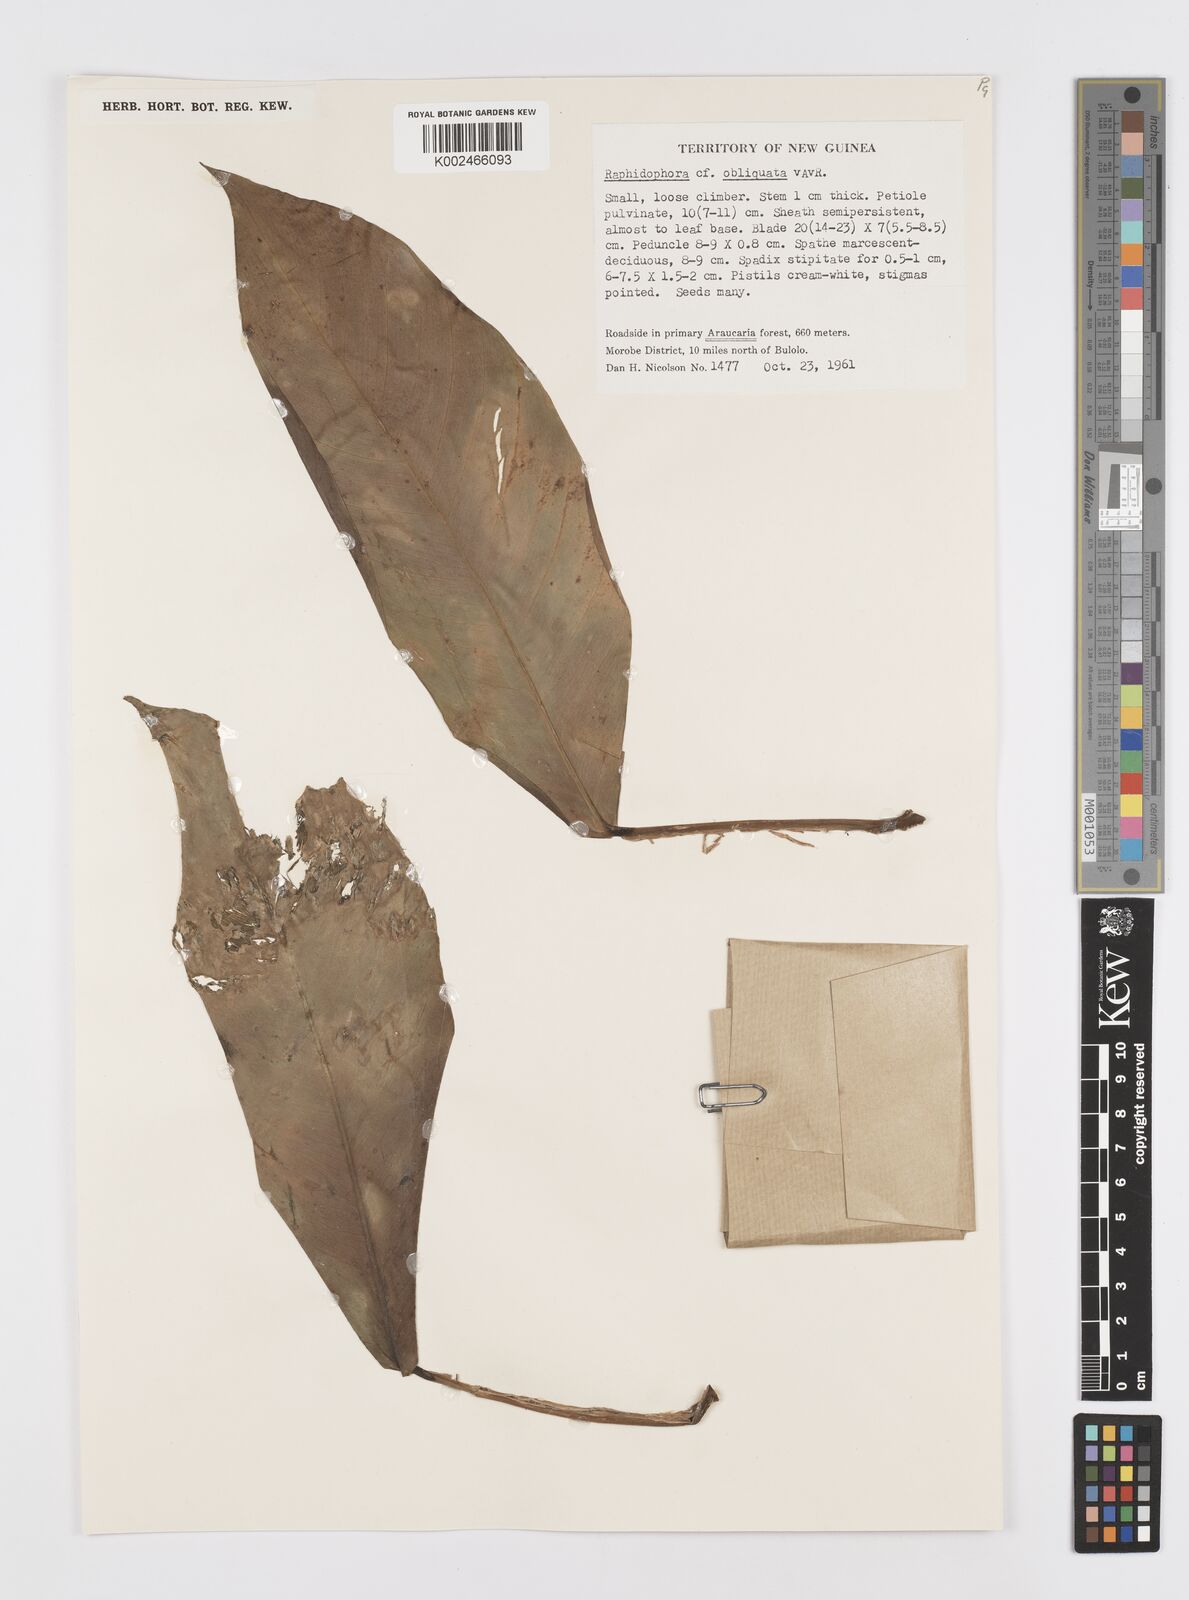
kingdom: Plantae
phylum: Tracheophyta
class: Liliopsida
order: Alismatales
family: Araceae
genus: Rhaphidophora
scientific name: Rhaphidophora schlechteri
